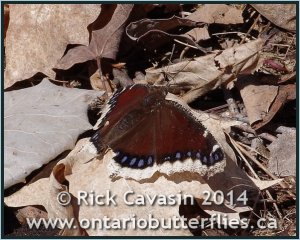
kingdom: Animalia
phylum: Arthropoda
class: Insecta
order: Lepidoptera
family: Nymphalidae
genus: Nymphalis
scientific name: Nymphalis antiopa
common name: Mourning Cloak
